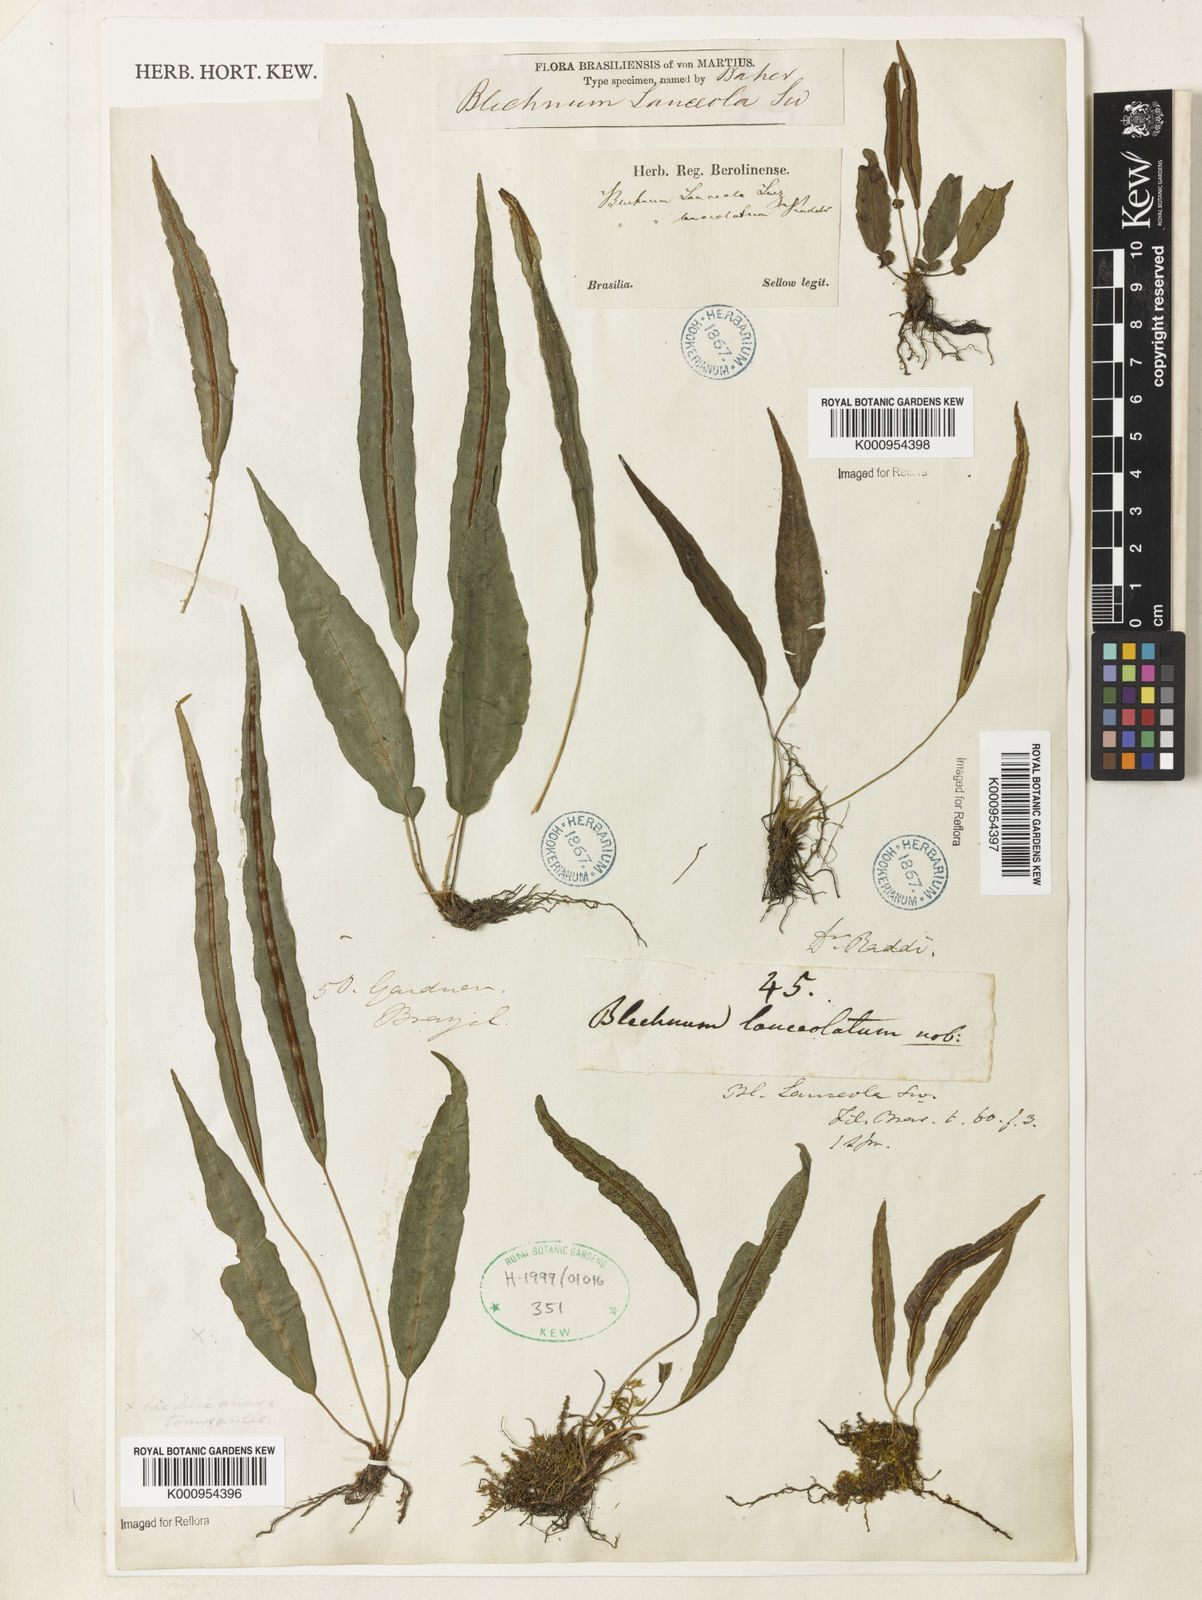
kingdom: Plantae
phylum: Tracheophyta
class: Polypodiopsida
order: Polypodiales
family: Blechnaceae
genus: Blechnum
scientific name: Blechnum lanceola
